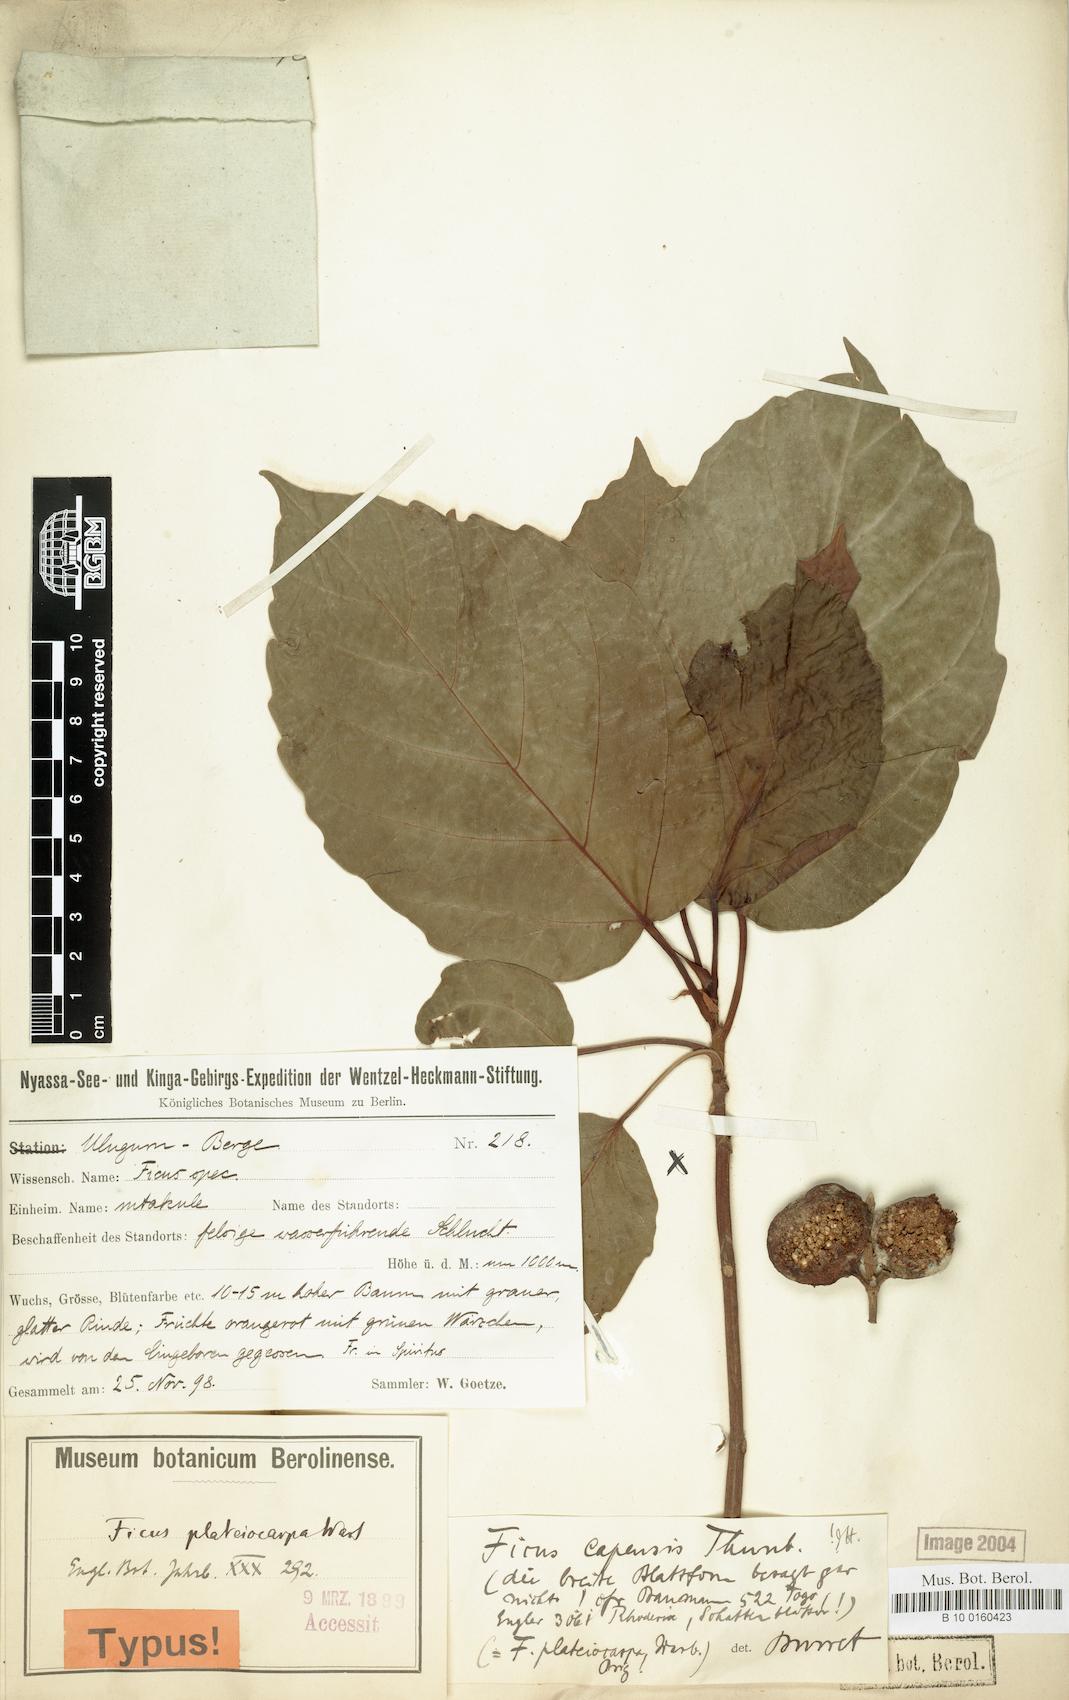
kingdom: Plantae
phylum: Tracheophyta
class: Magnoliopsida
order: Rosales
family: Moraceae
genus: Ficus
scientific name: Ficus sur
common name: Cape fig
